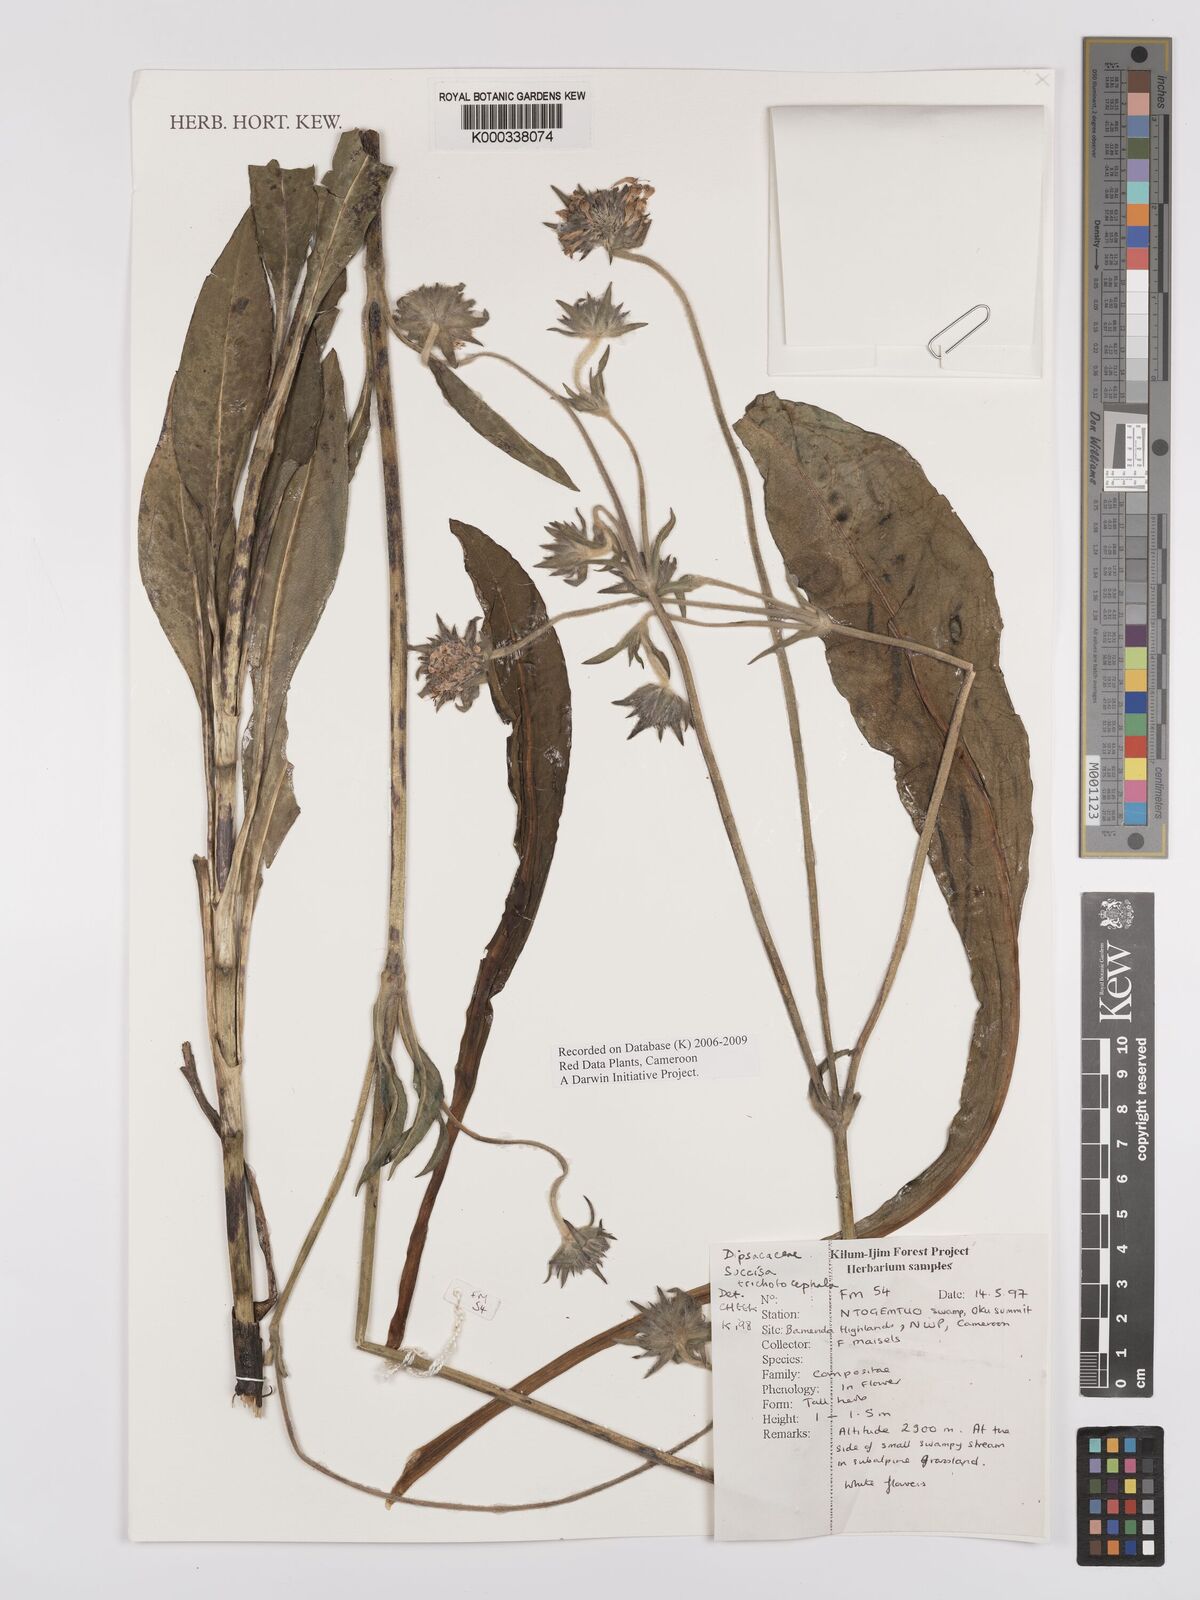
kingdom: Plantae
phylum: Tracheophyta
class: Magnoliopsida
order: Dipsacales
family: Caprifoliaceae
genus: Succisa
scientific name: Succisa trichotocephala
